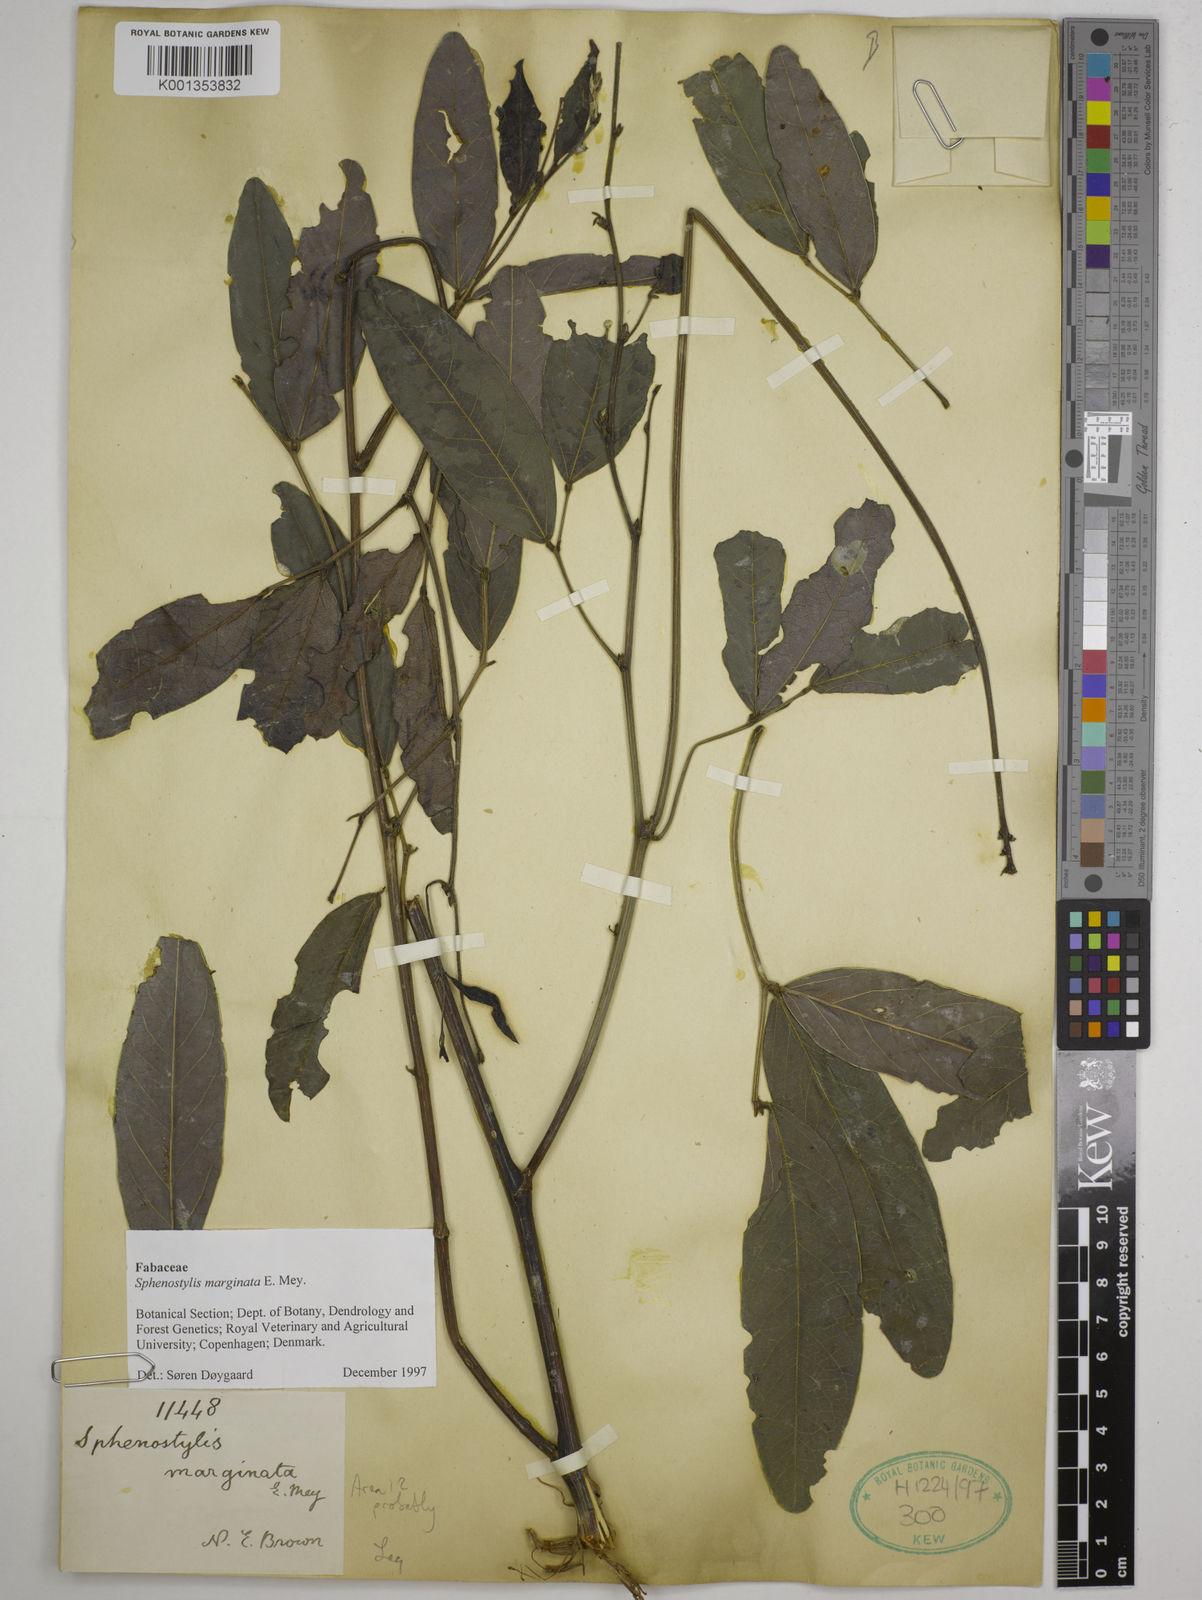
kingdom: Plantae
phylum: Tracheophyta
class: Magnoliopsida
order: Fabales
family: Fabaceae
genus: Sphenostylis
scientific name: Sphenostylis marginata
